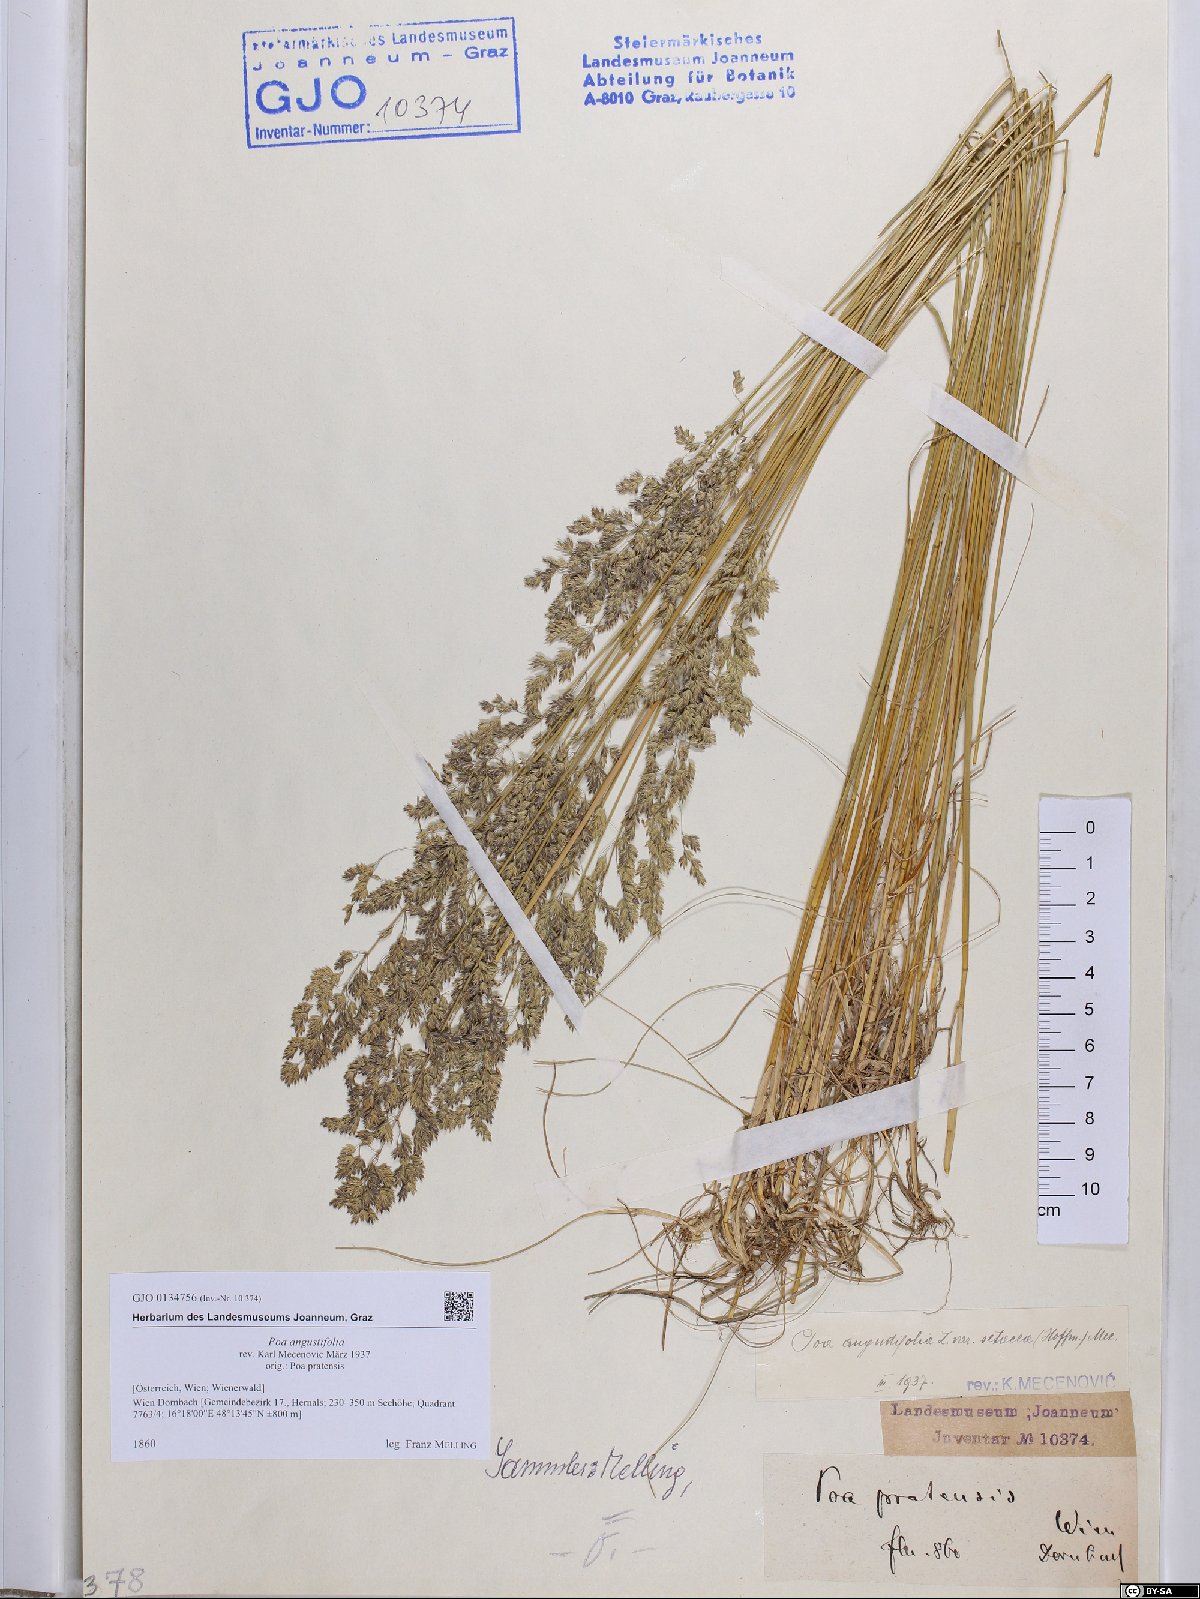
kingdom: Plantae
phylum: Tracheophyta
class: Liliopsida
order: Poales
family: Poaceae
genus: Poa
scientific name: Poa angustifolia
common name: Narrow-leaved meadow-grass
